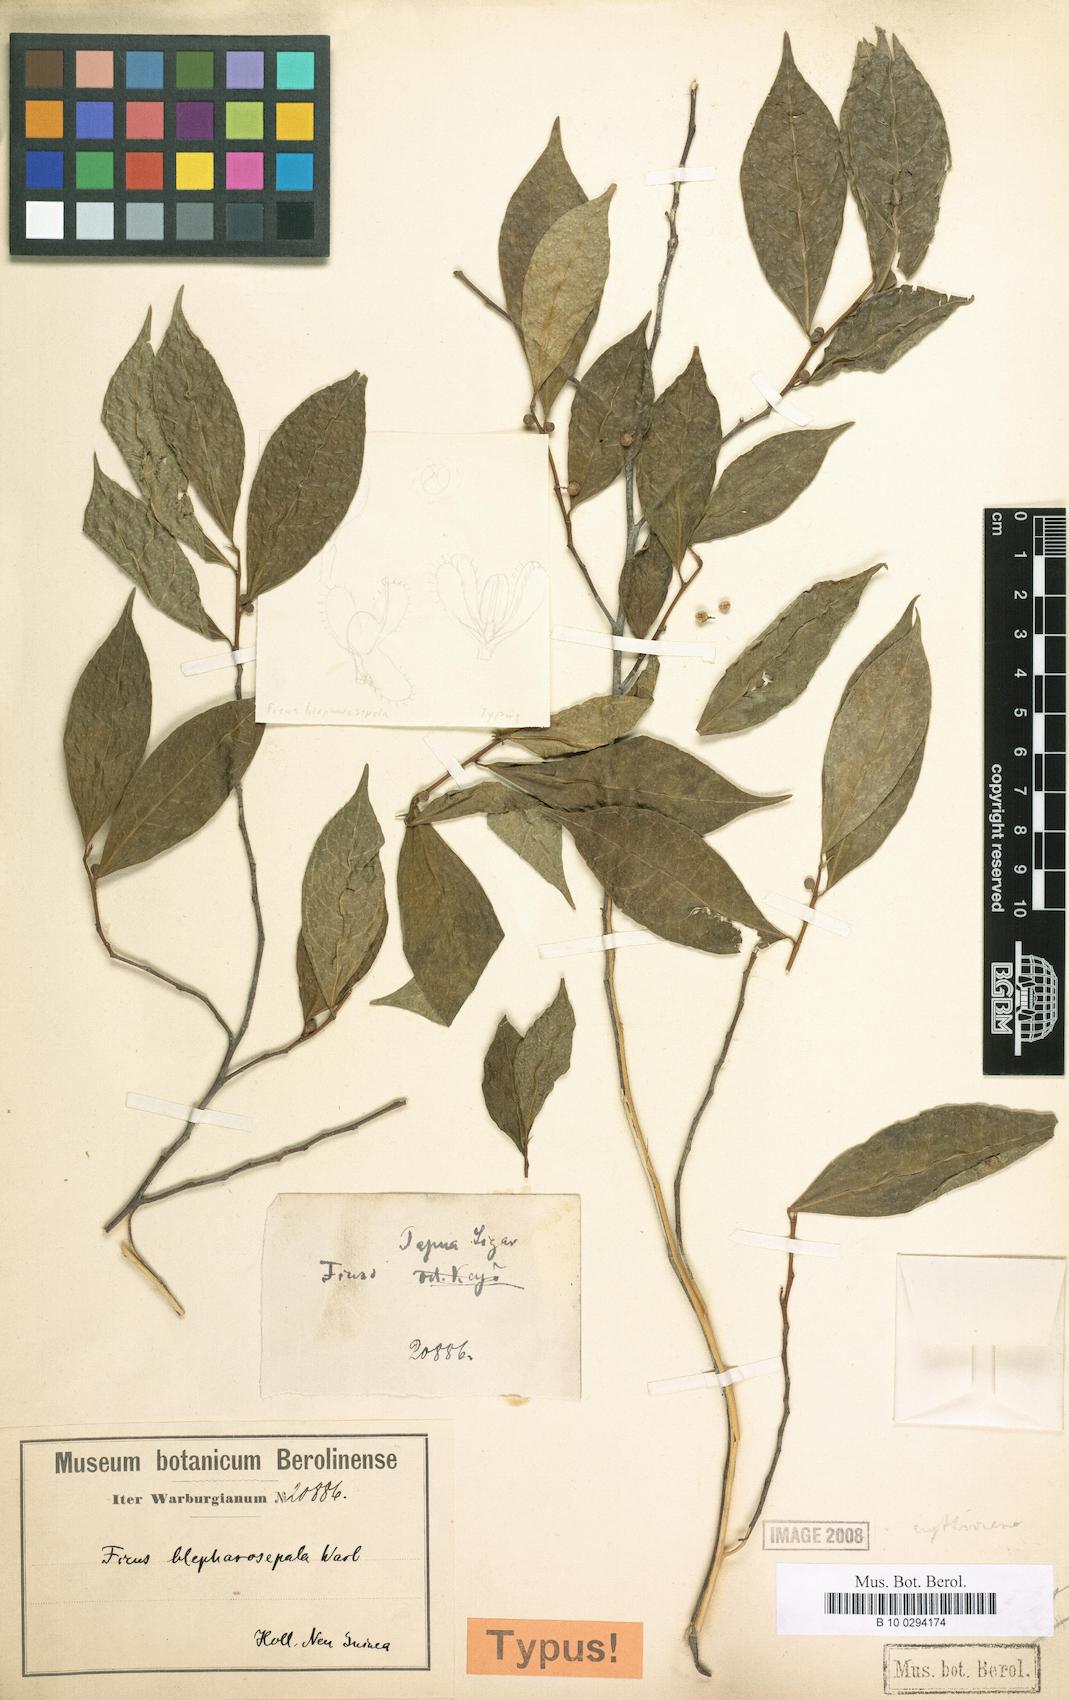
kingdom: Plantae
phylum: Tracheophyta
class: Magnoliopsida
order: Rosales
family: Moraceae
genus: Ficus
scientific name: Ficus ampelos
